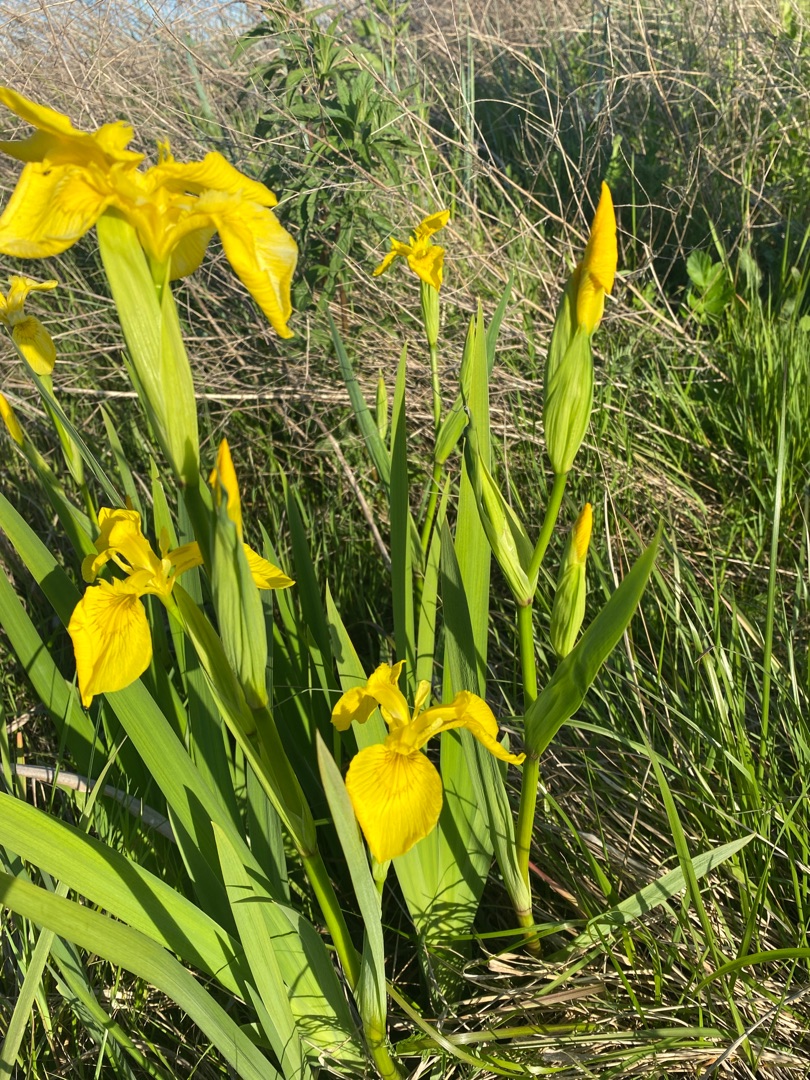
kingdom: Plantae
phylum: Tracheophyta
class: Liliopsida
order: Asparagales
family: Iridaceae
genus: Iris
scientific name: Iris pseudacorus
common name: Gul iris
